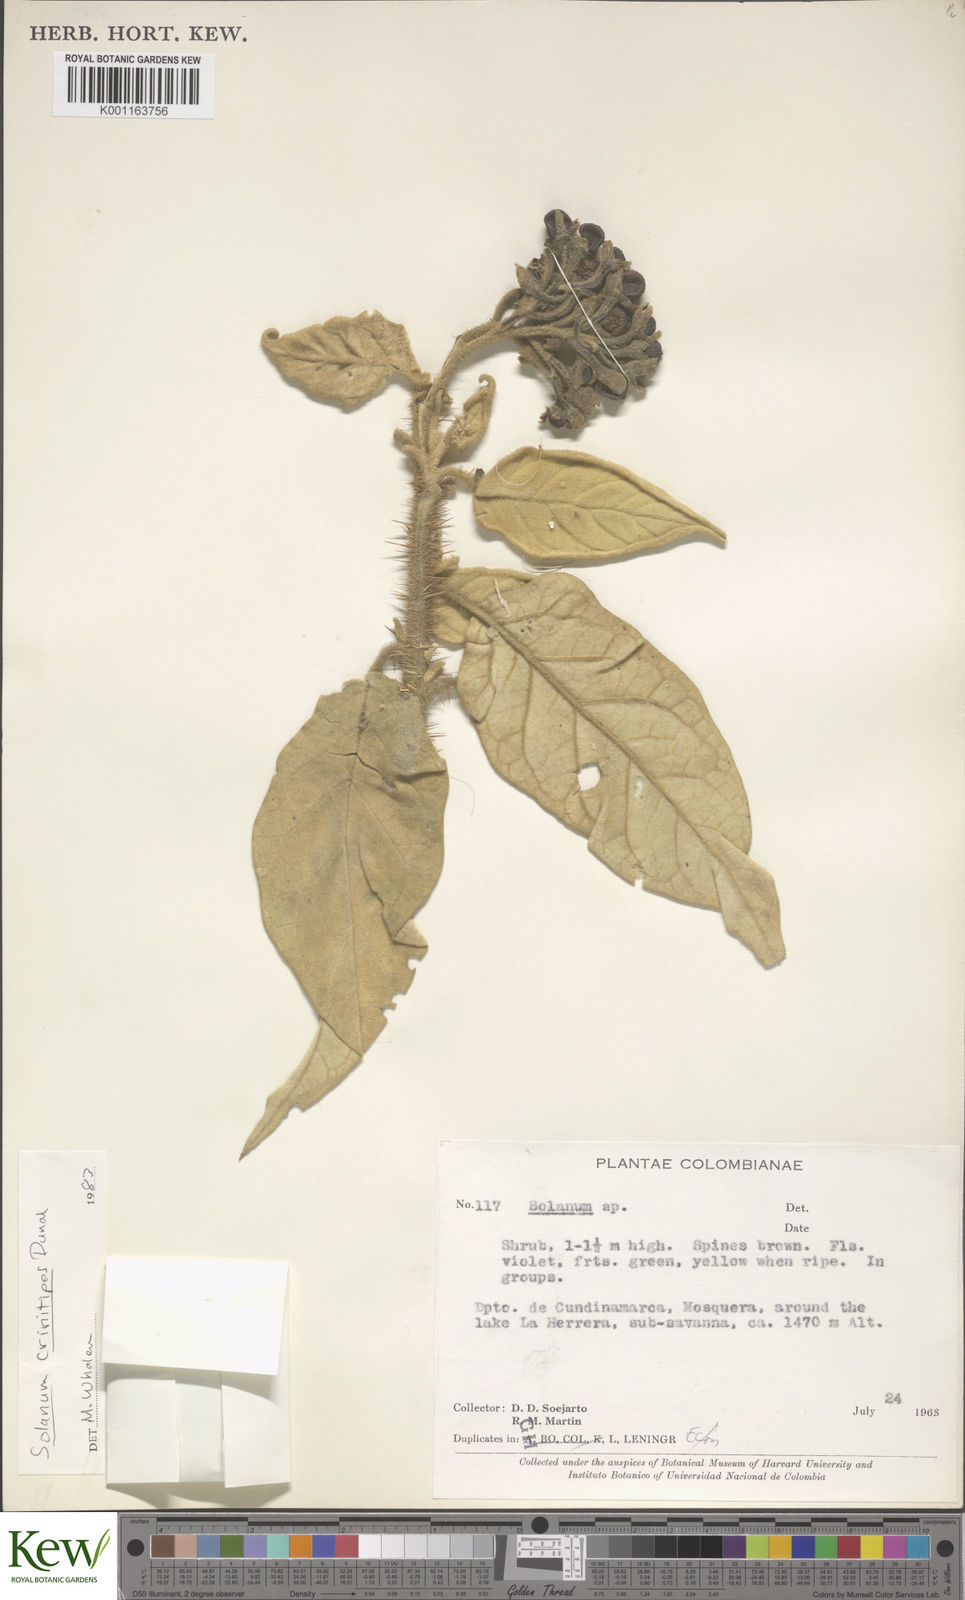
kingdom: Plantae
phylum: Tracheophyta
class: Magnoliopsida
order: Solanales
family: Solanaceae
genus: Solanum
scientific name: Solanum crinitipes
